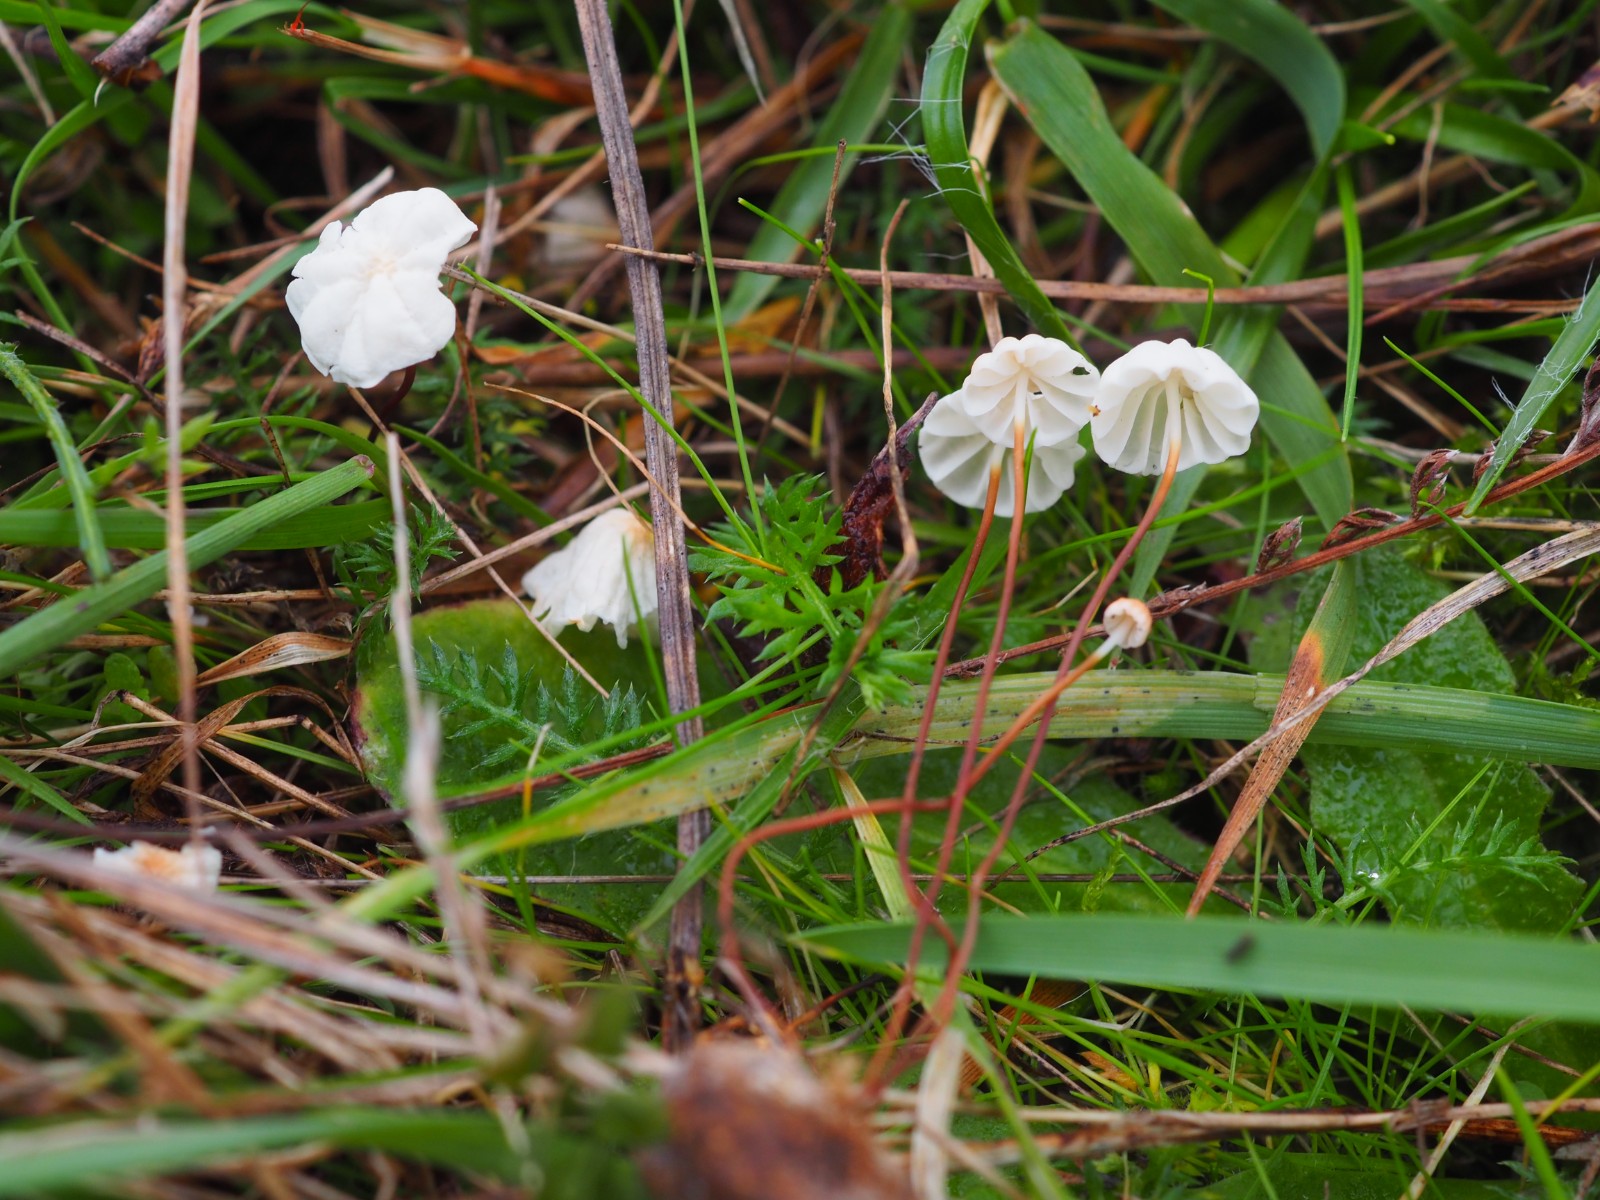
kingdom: Fungi
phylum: Basidiomycota
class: Agaricomycetes
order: Agaricales
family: Marasmiaceae
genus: Marasmius
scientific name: Marasmius epodius
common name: steppe-bruskhat
